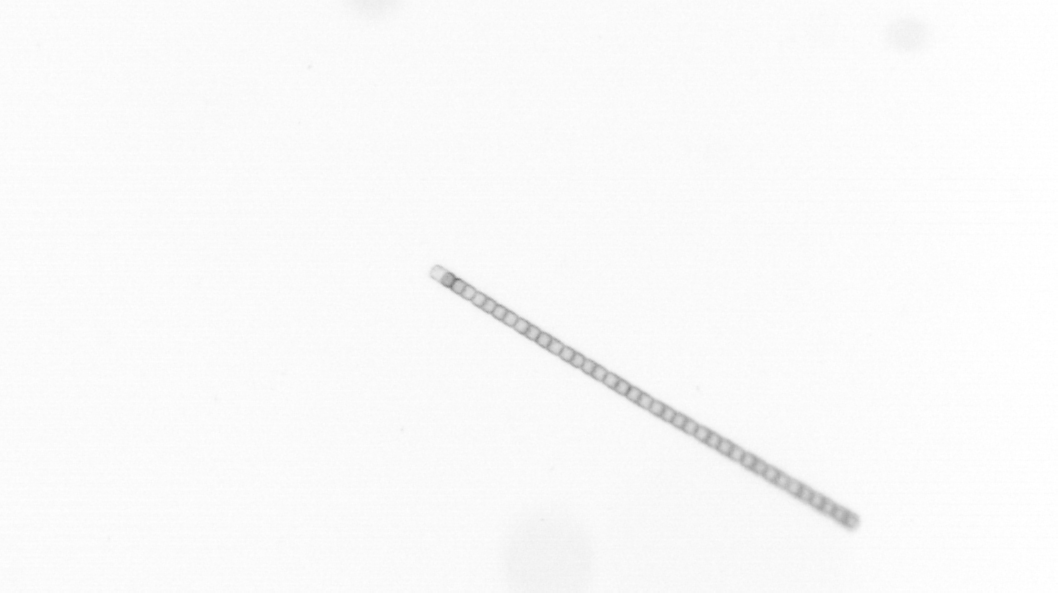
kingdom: Chromista
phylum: Ochrophyta
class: Bacillariophyceae
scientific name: Bacillariophyceae
